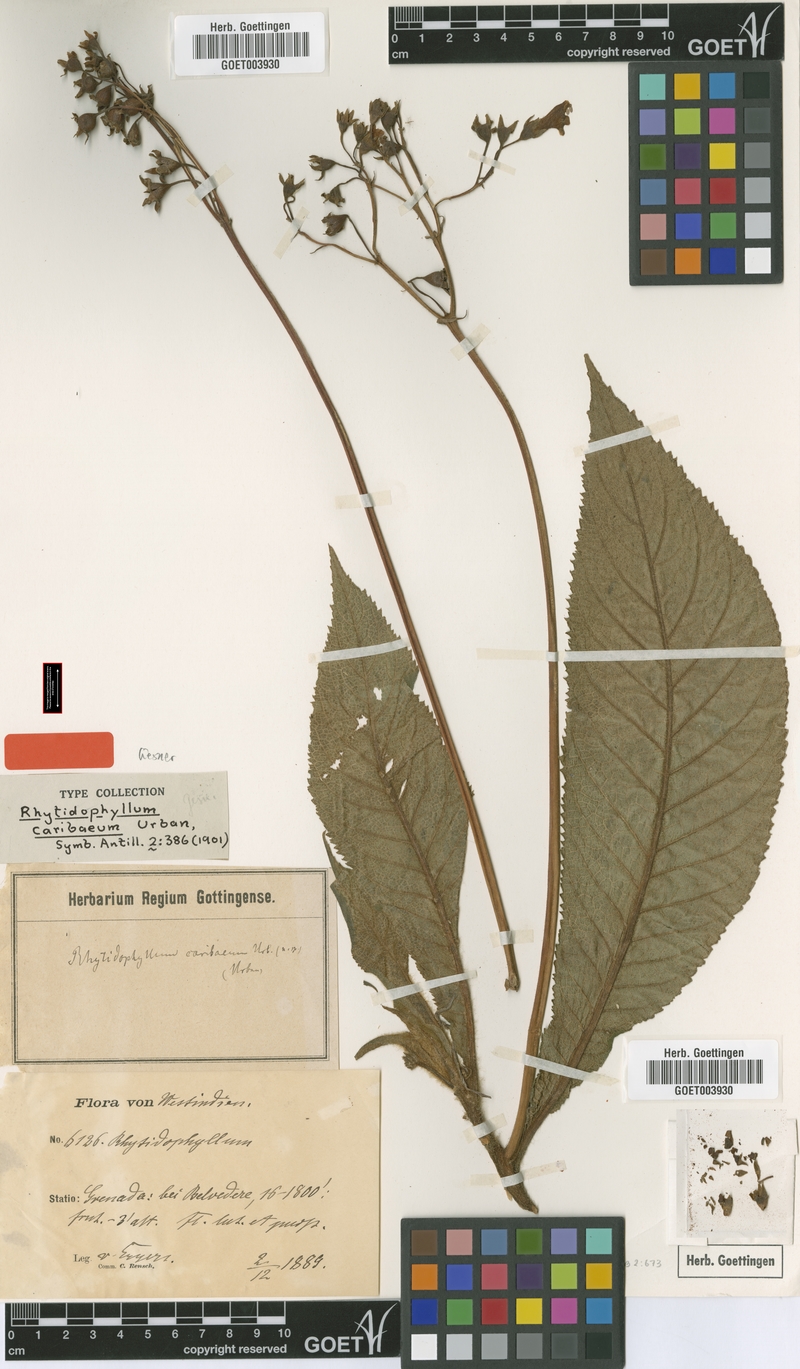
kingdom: Plantae
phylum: Tracheophyta
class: Magnoliopsida
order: Lamiales
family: Gesneriaceae
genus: Rhytidophyllum
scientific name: Rhytidophyllum caribaeum
